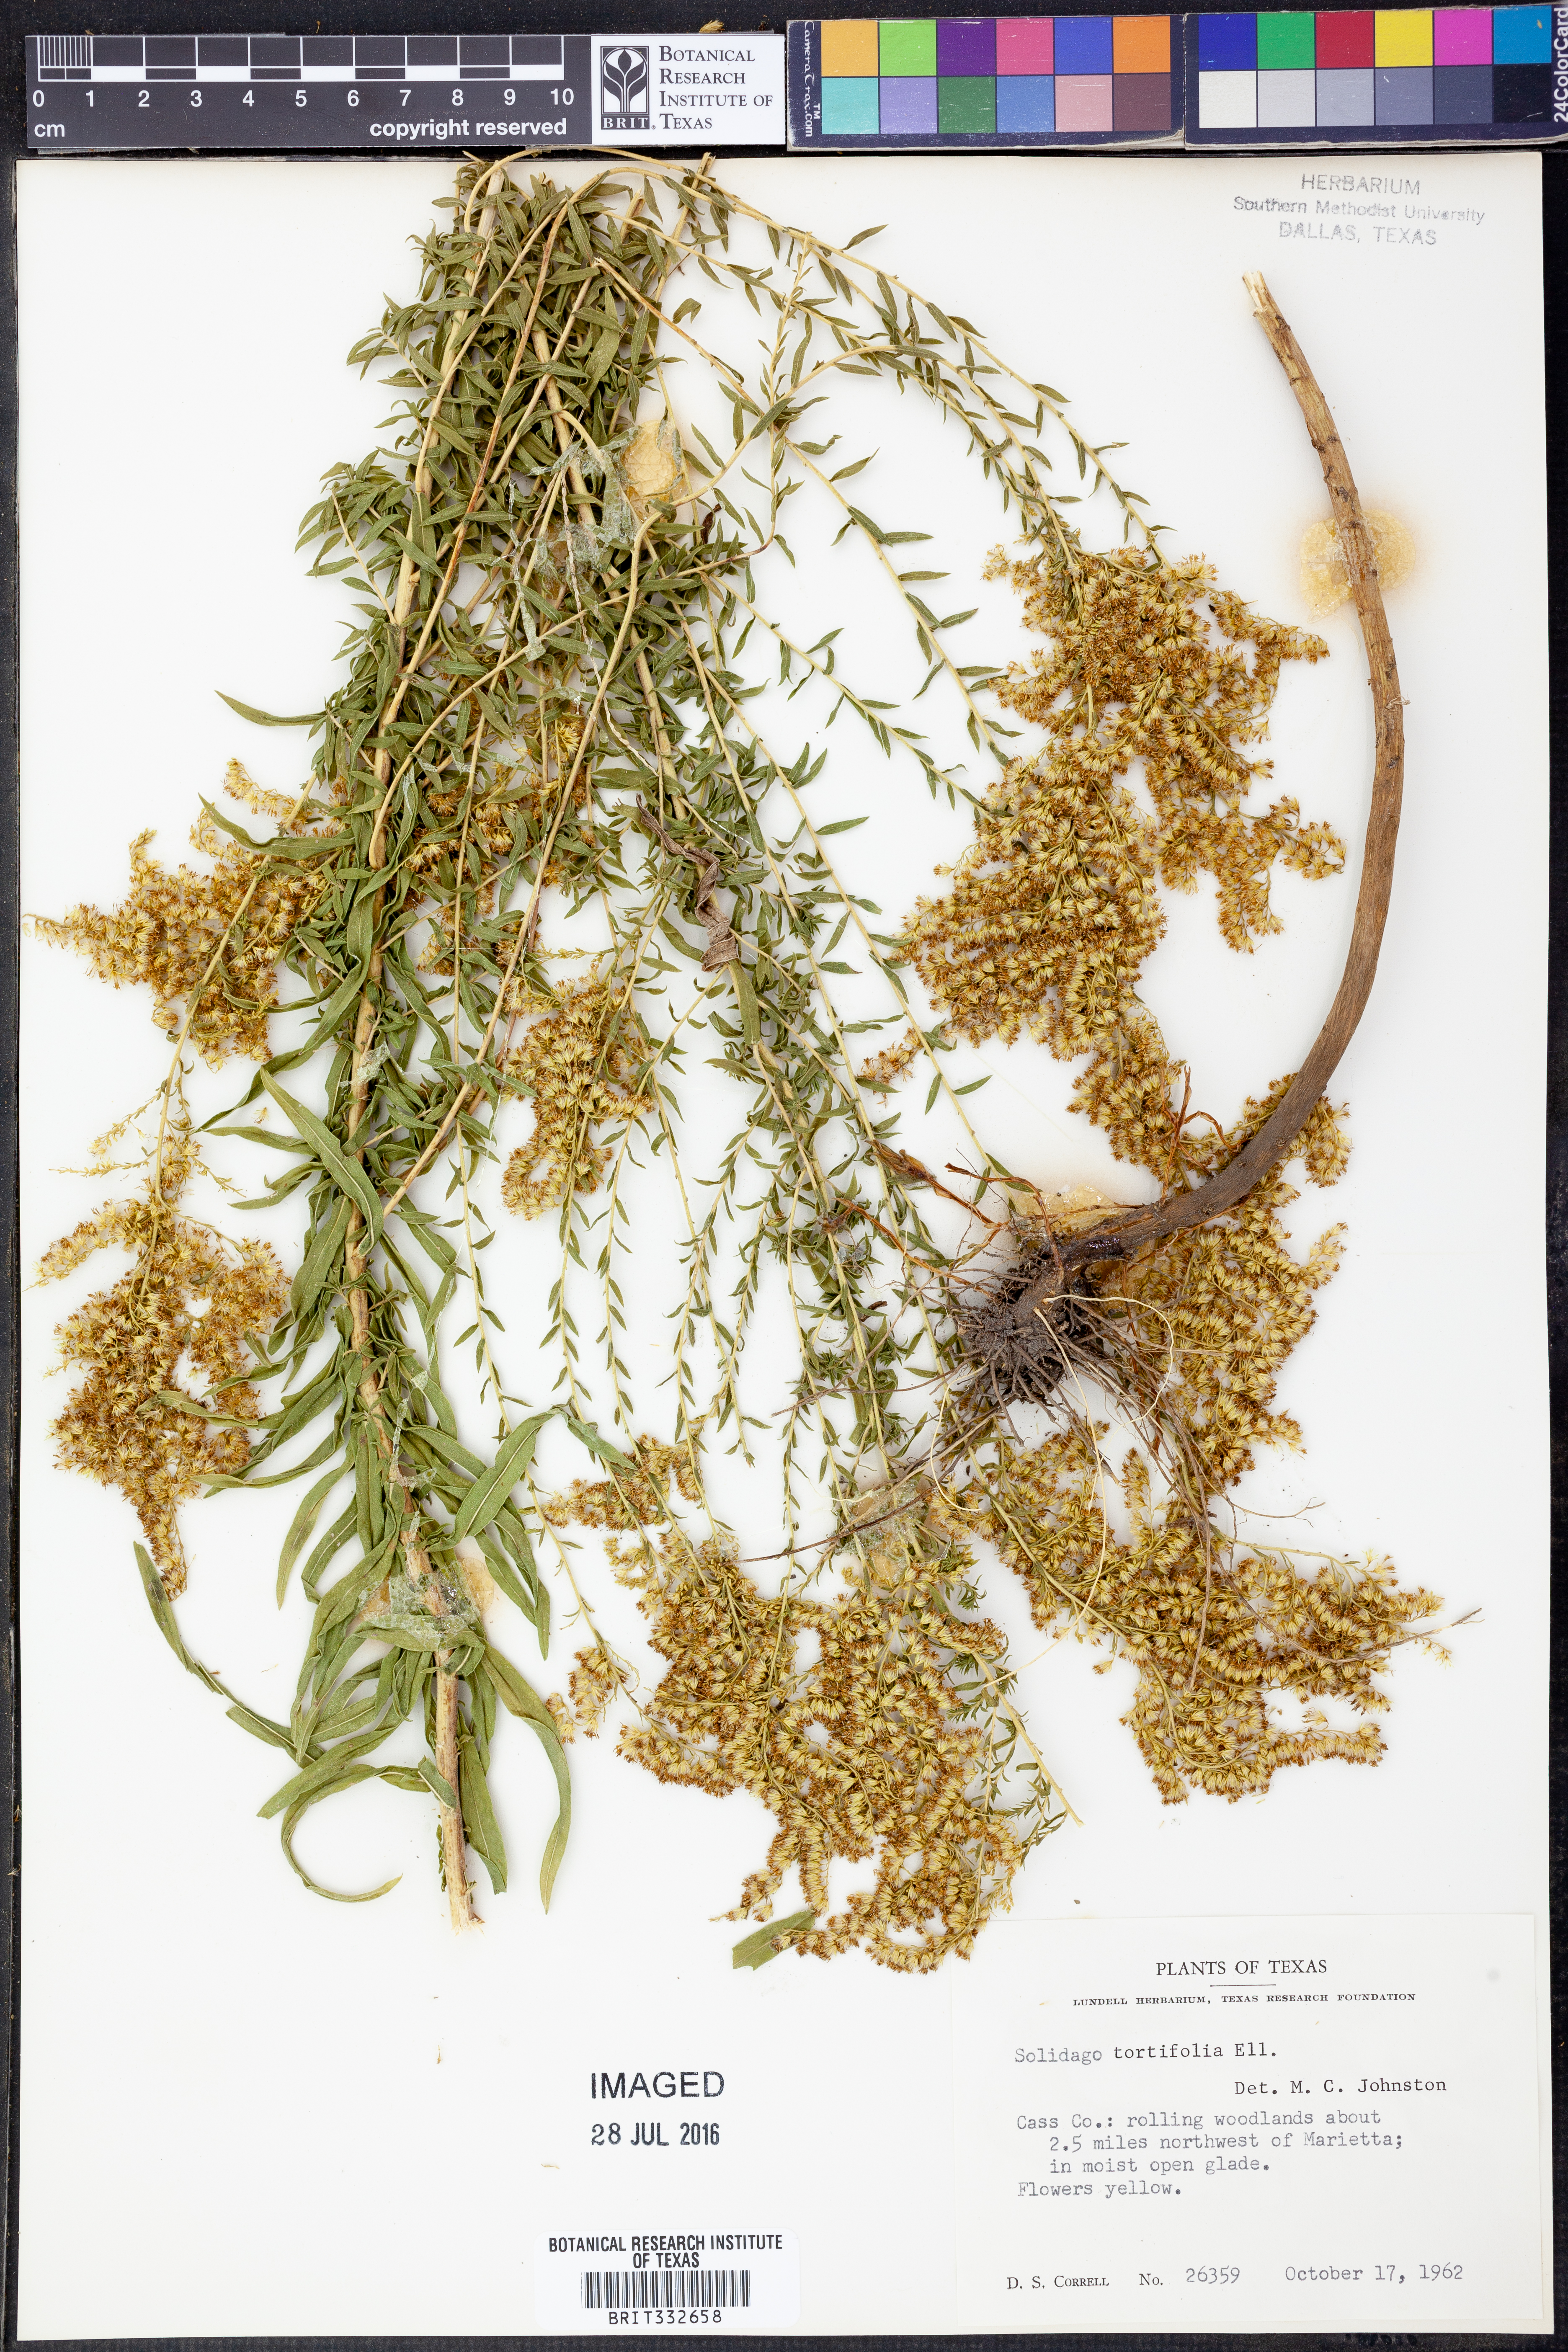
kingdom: Plantae
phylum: Tracheophyta
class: Magnoliopsida
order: Asterales
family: Asteraceae
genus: Solidago
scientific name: Solidago tortifolia
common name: Twisted-leaf goldenrod
